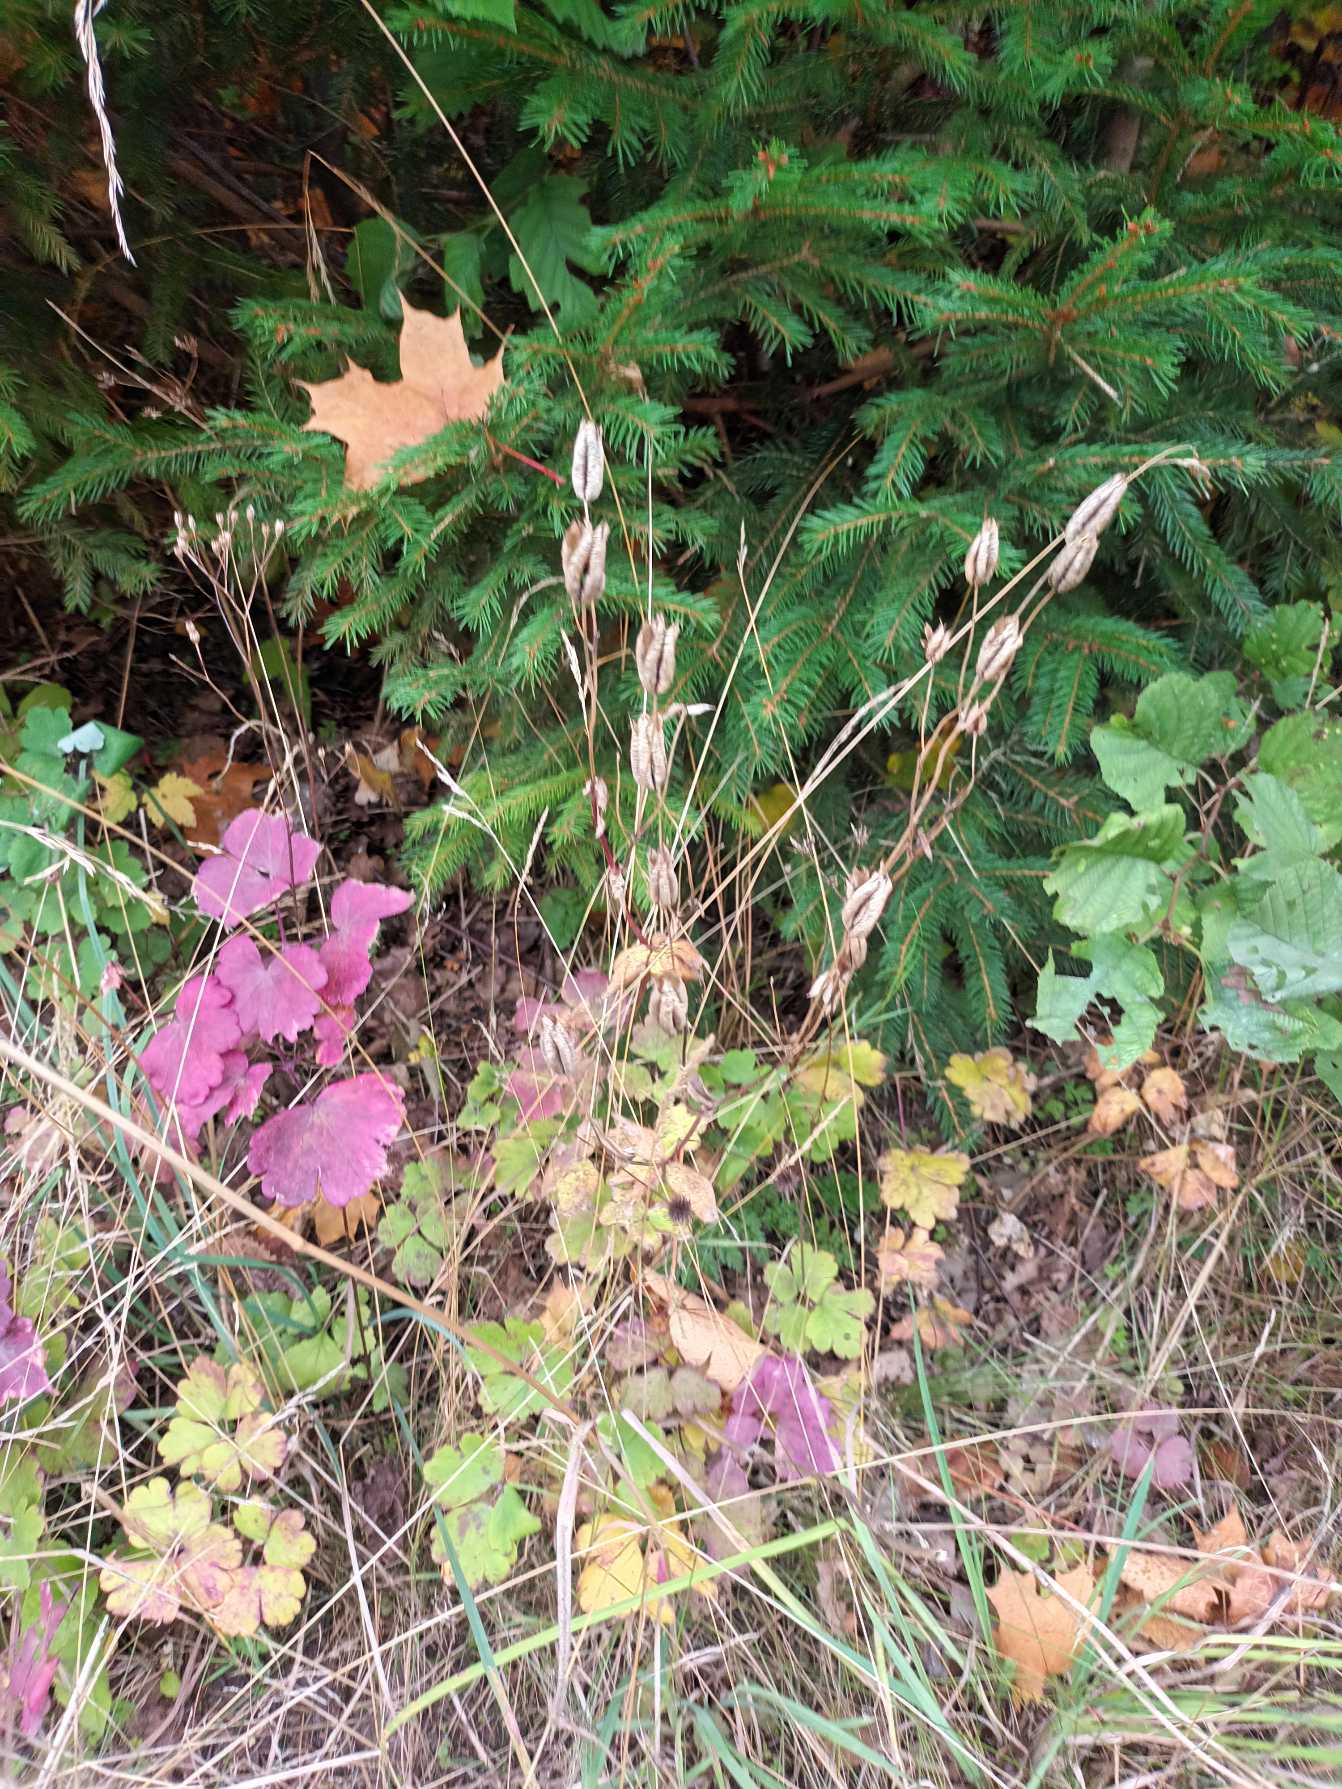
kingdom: Plantae
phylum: Tracheophyta
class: Magnoliopsida
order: Ranunculales
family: Ranunculaceae
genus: Aquilegia
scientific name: Aquilegia vulgaris
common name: Akeleje
